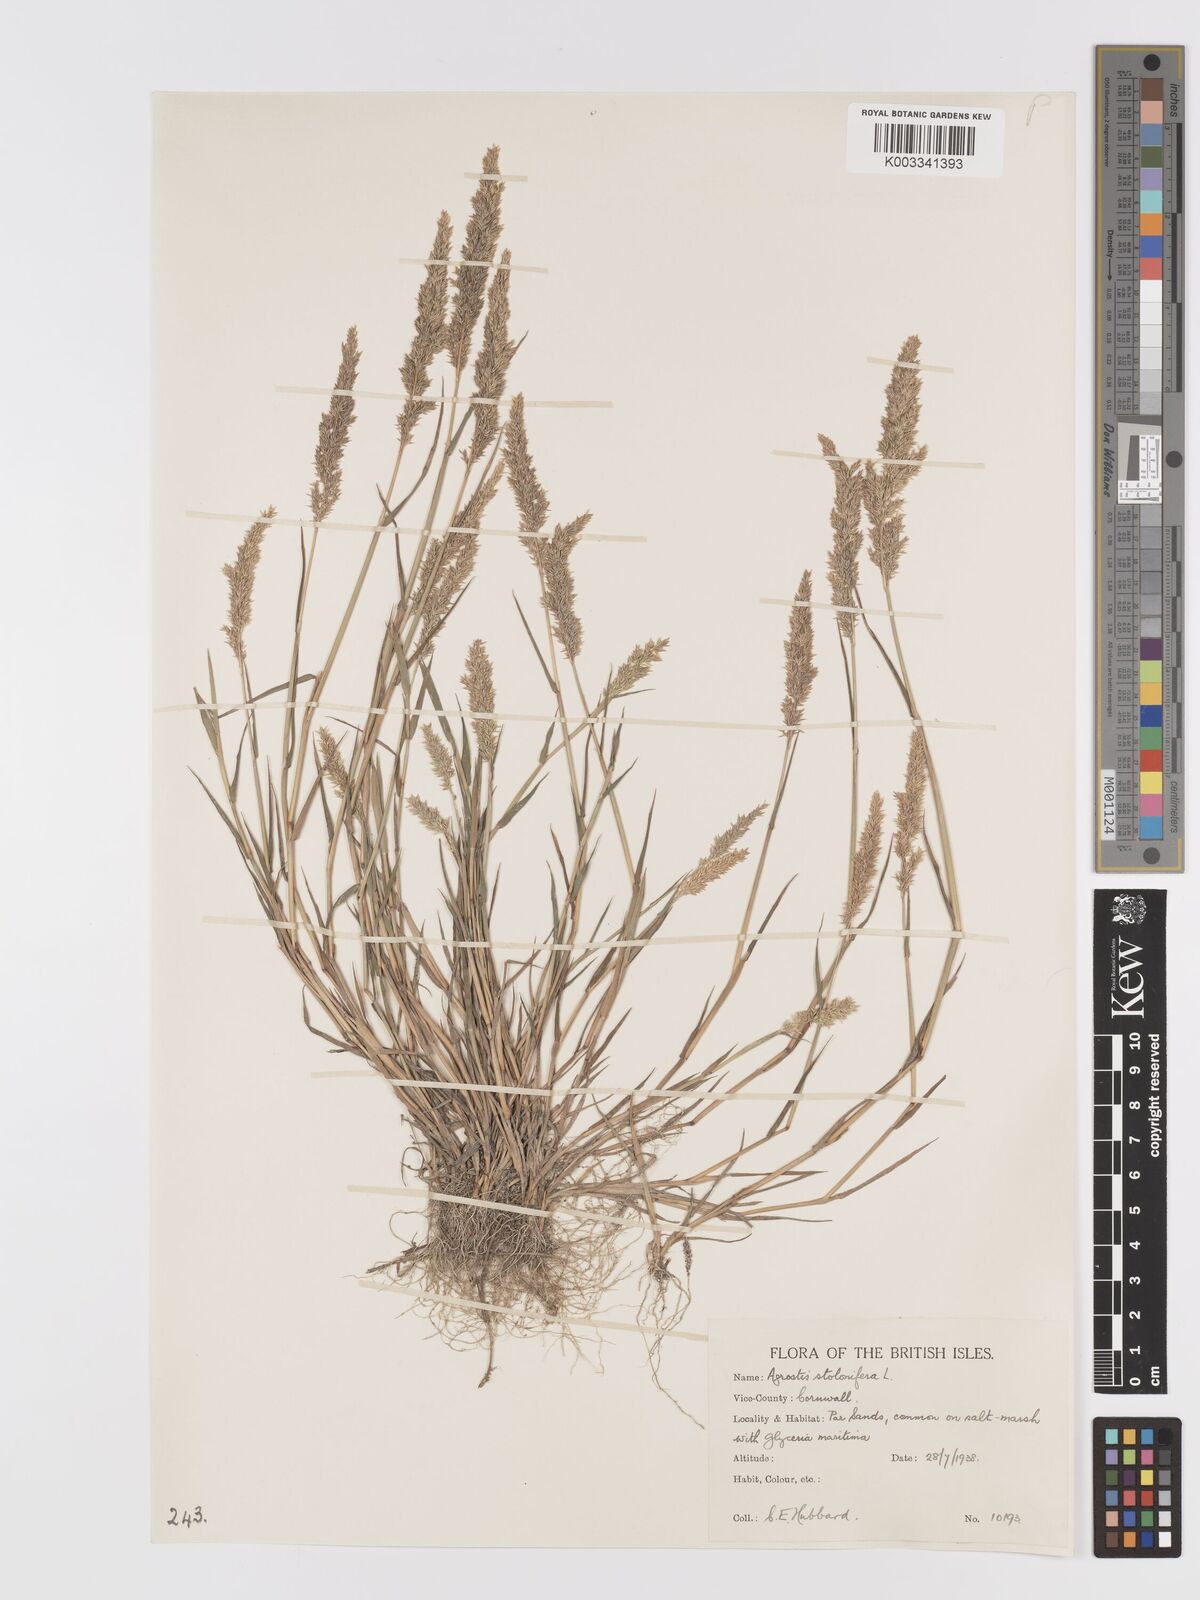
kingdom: Plantae
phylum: Tracheophyta
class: Liliopsida
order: Poales
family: Poaceae
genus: Agrostis
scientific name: Agrostis stolonifera
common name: Creeping bentgrass
